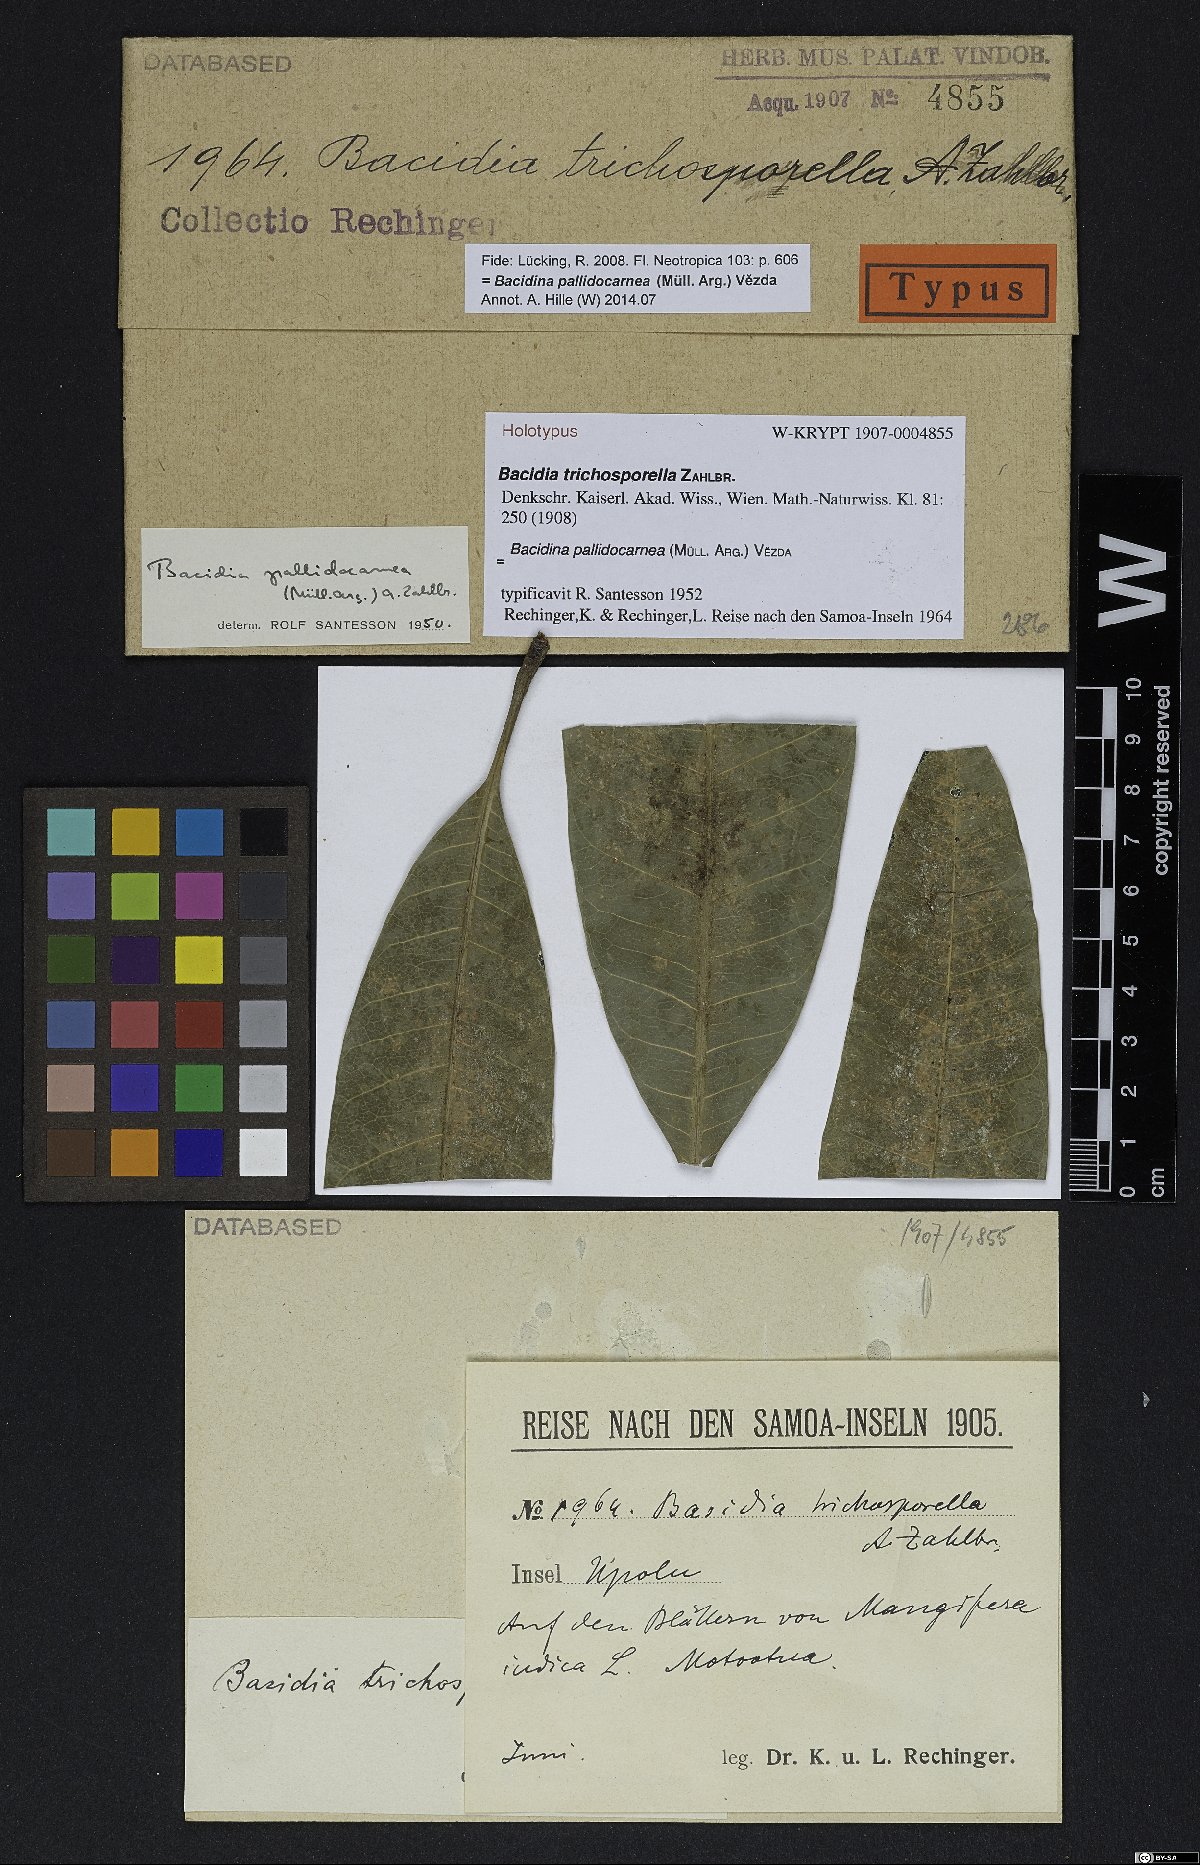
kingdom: Fungi
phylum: Ascomycota
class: Lecanoromycetes
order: Lecanorales
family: Ramalinaceae
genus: Bacidia
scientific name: Bacidia trichospora
